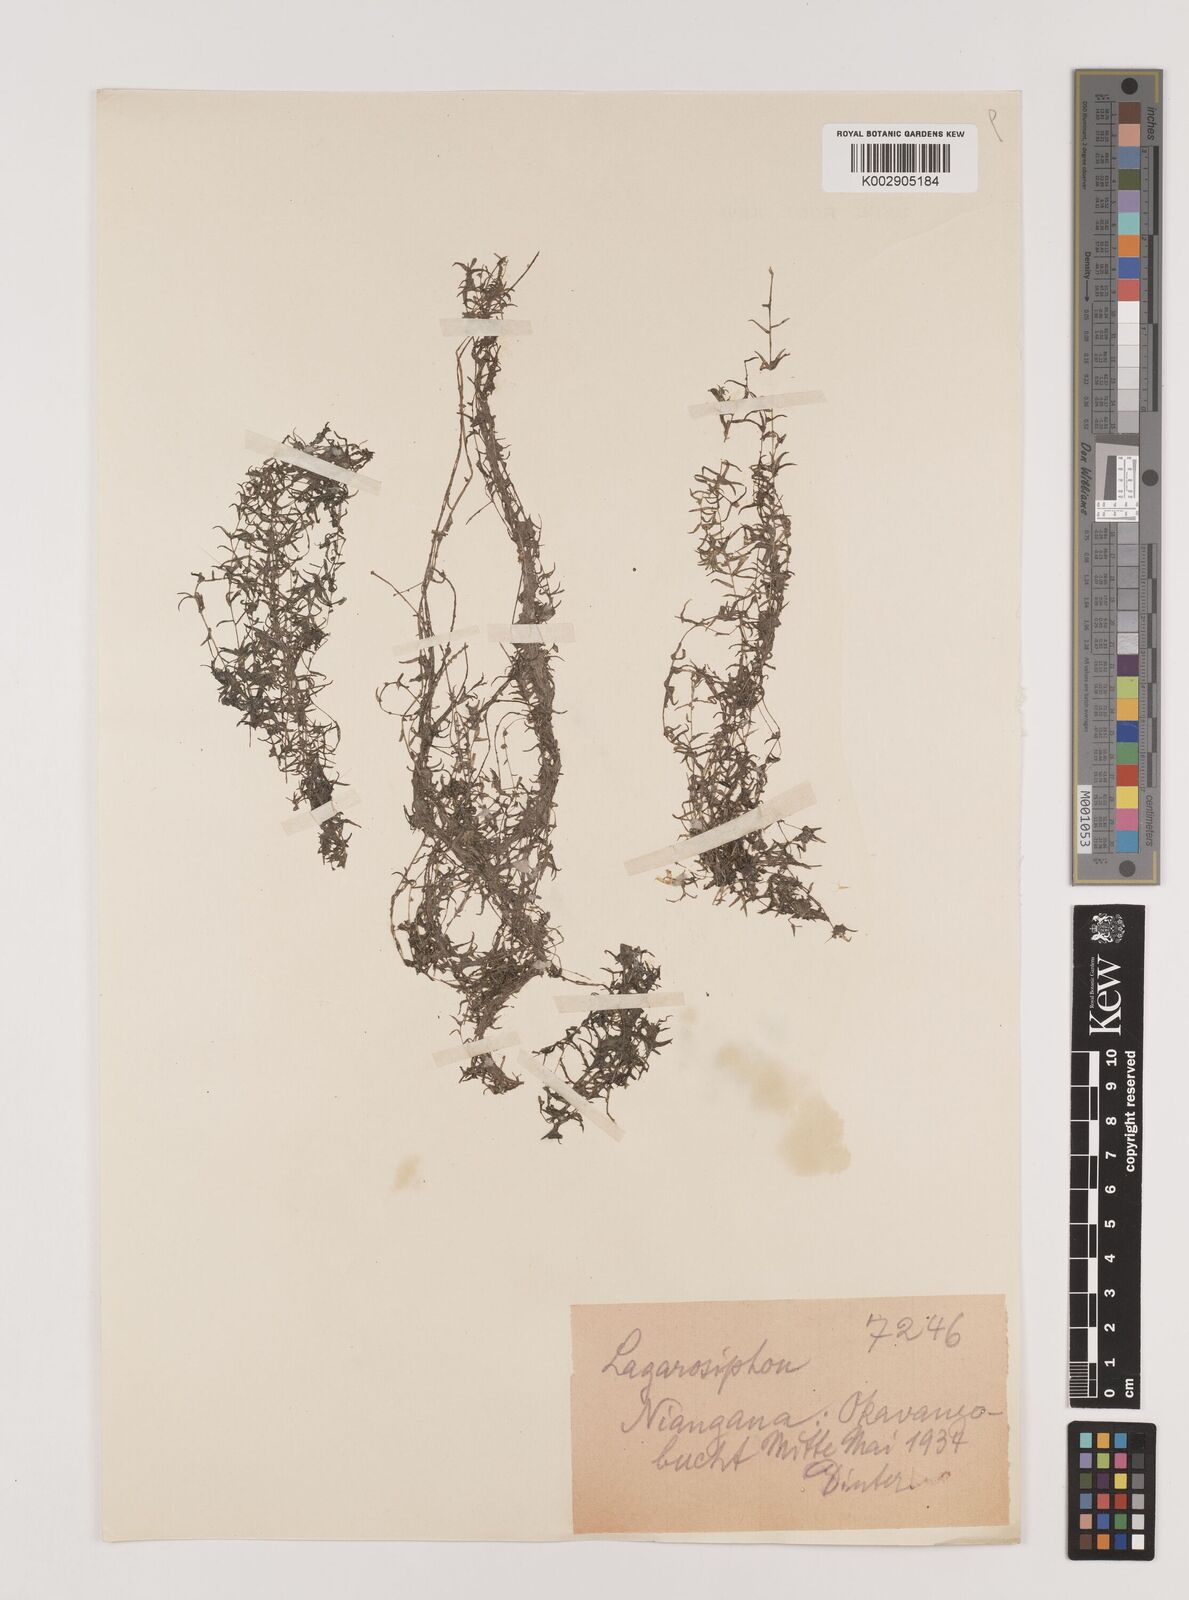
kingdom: Plantae
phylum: Tracheophyta
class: Liliopsida
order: Alismatales
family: Hydrocharitaceae
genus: Lagarosiphon
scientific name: Lagarosiphon
